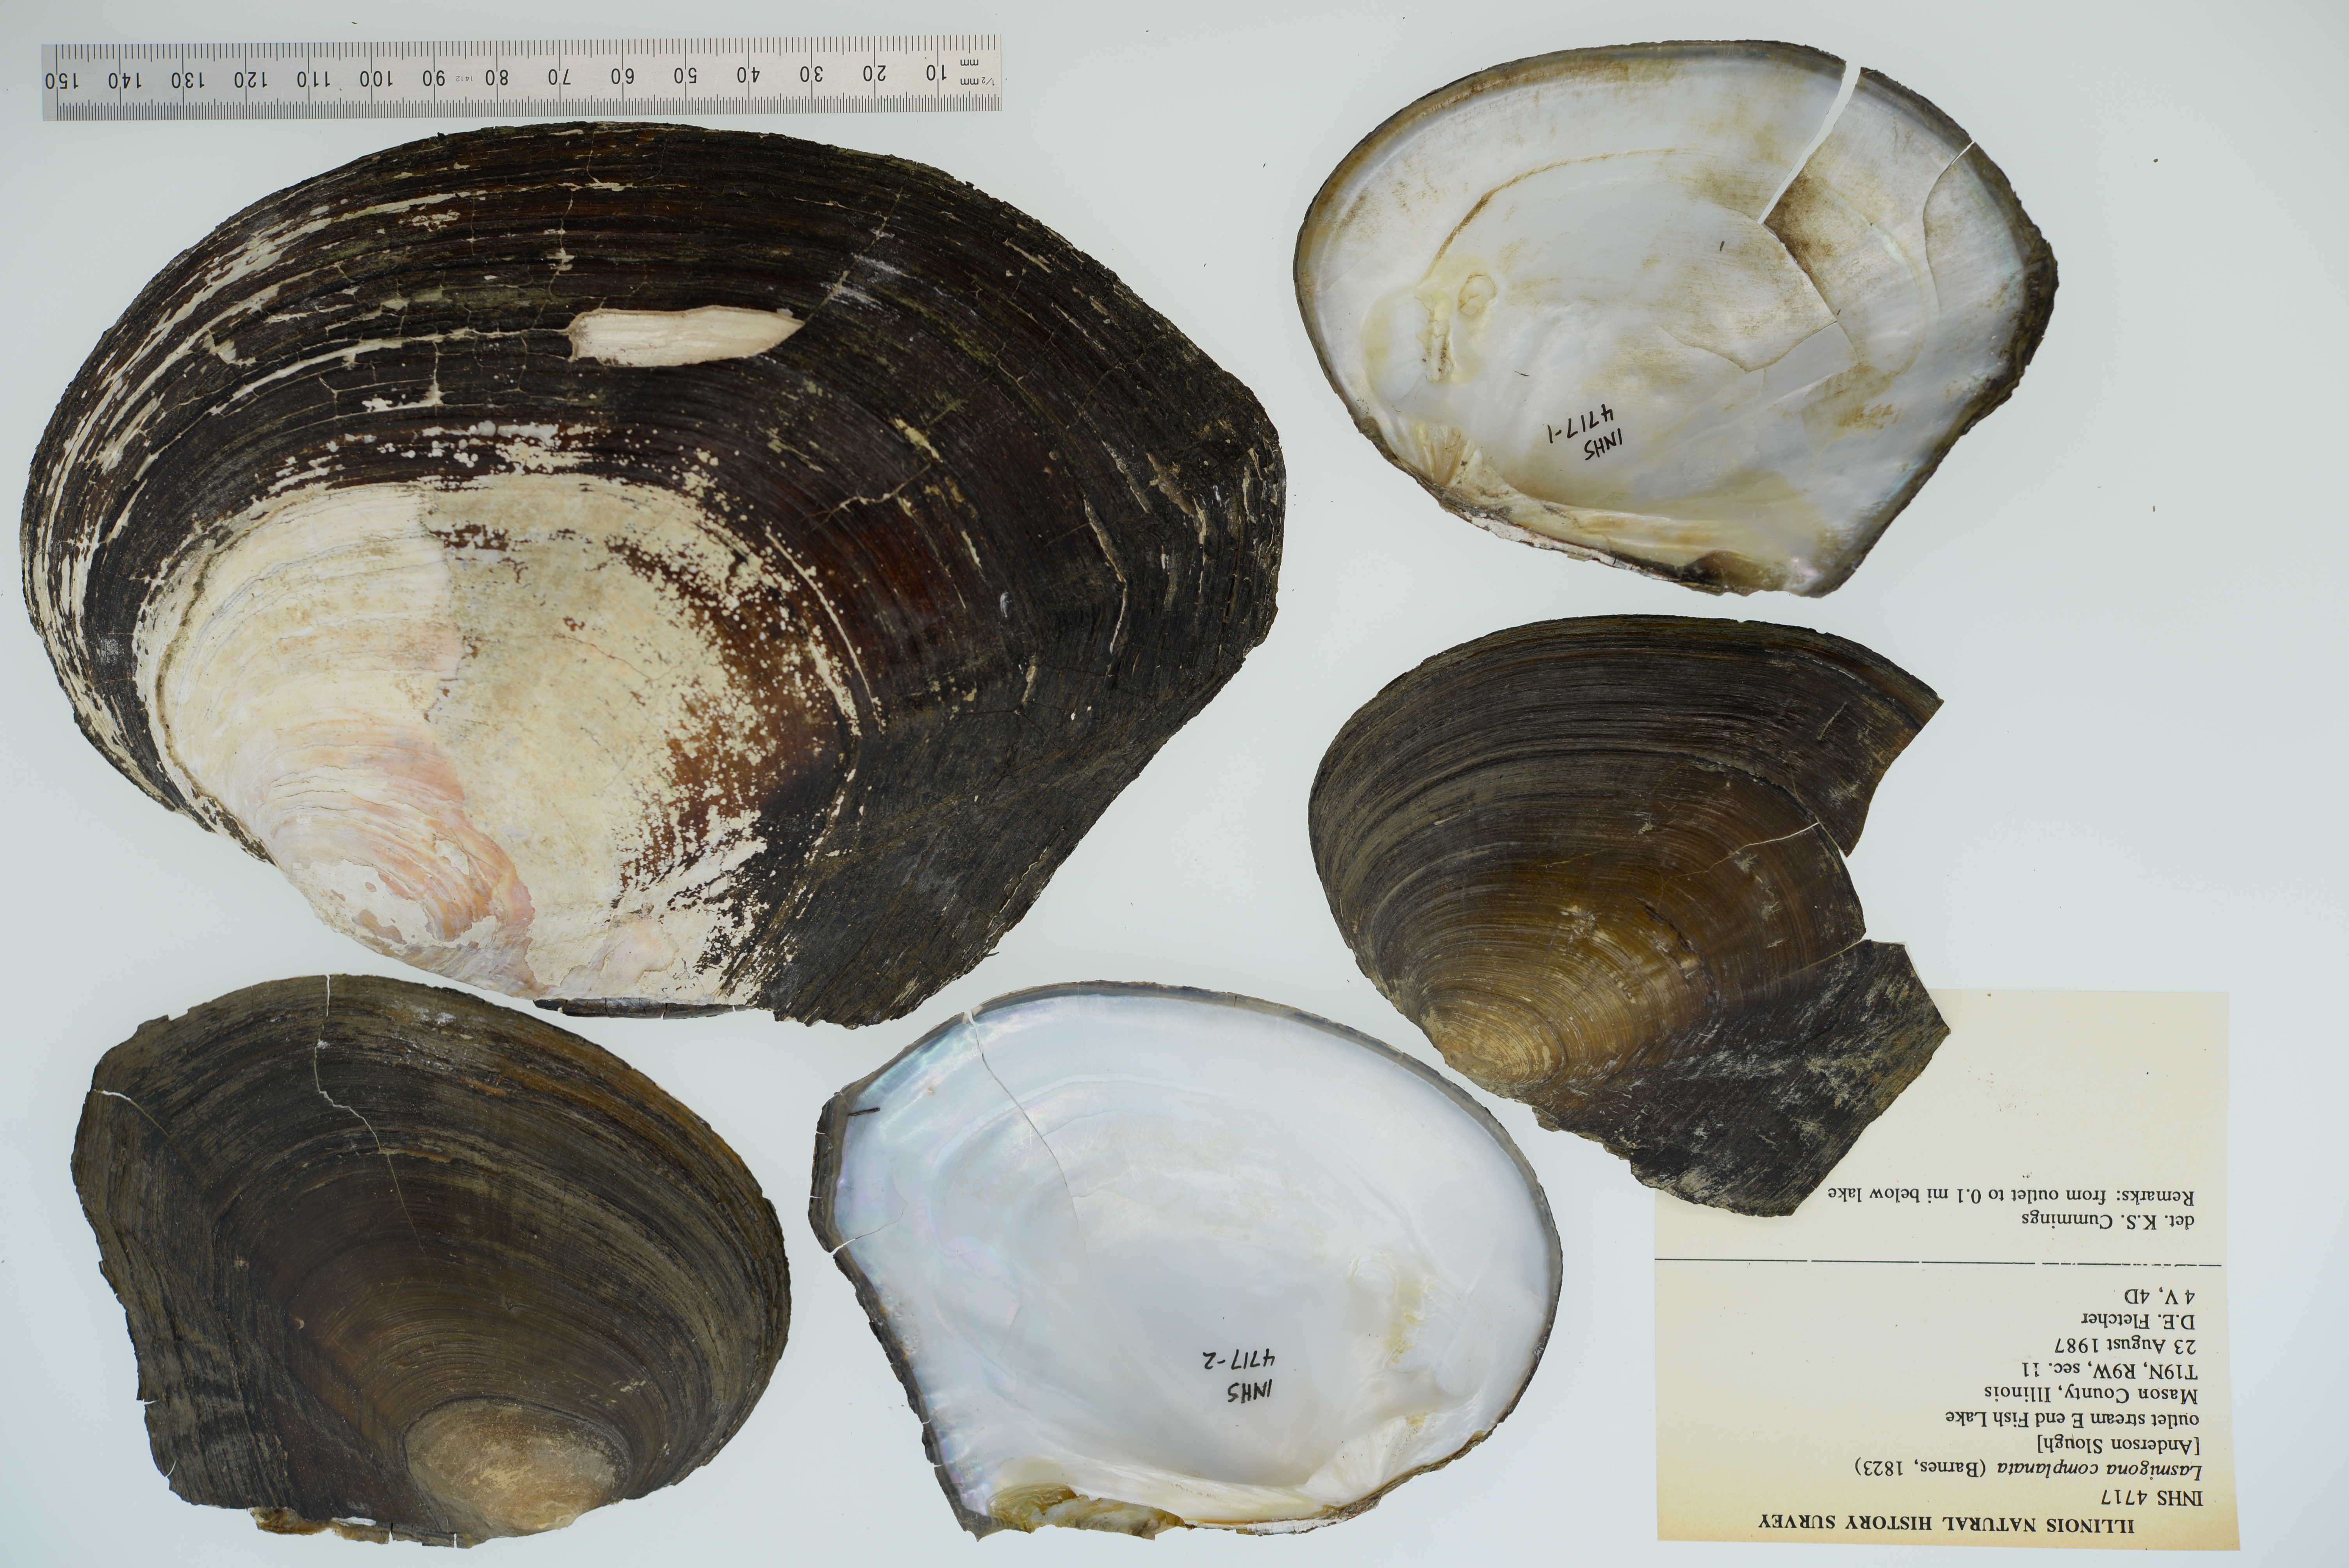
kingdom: Animalia
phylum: Mollusca
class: Bivalvia
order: Unionida
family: Unionidae
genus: Lasmigona
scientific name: Lasmigona complanata
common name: White heelsplitter
